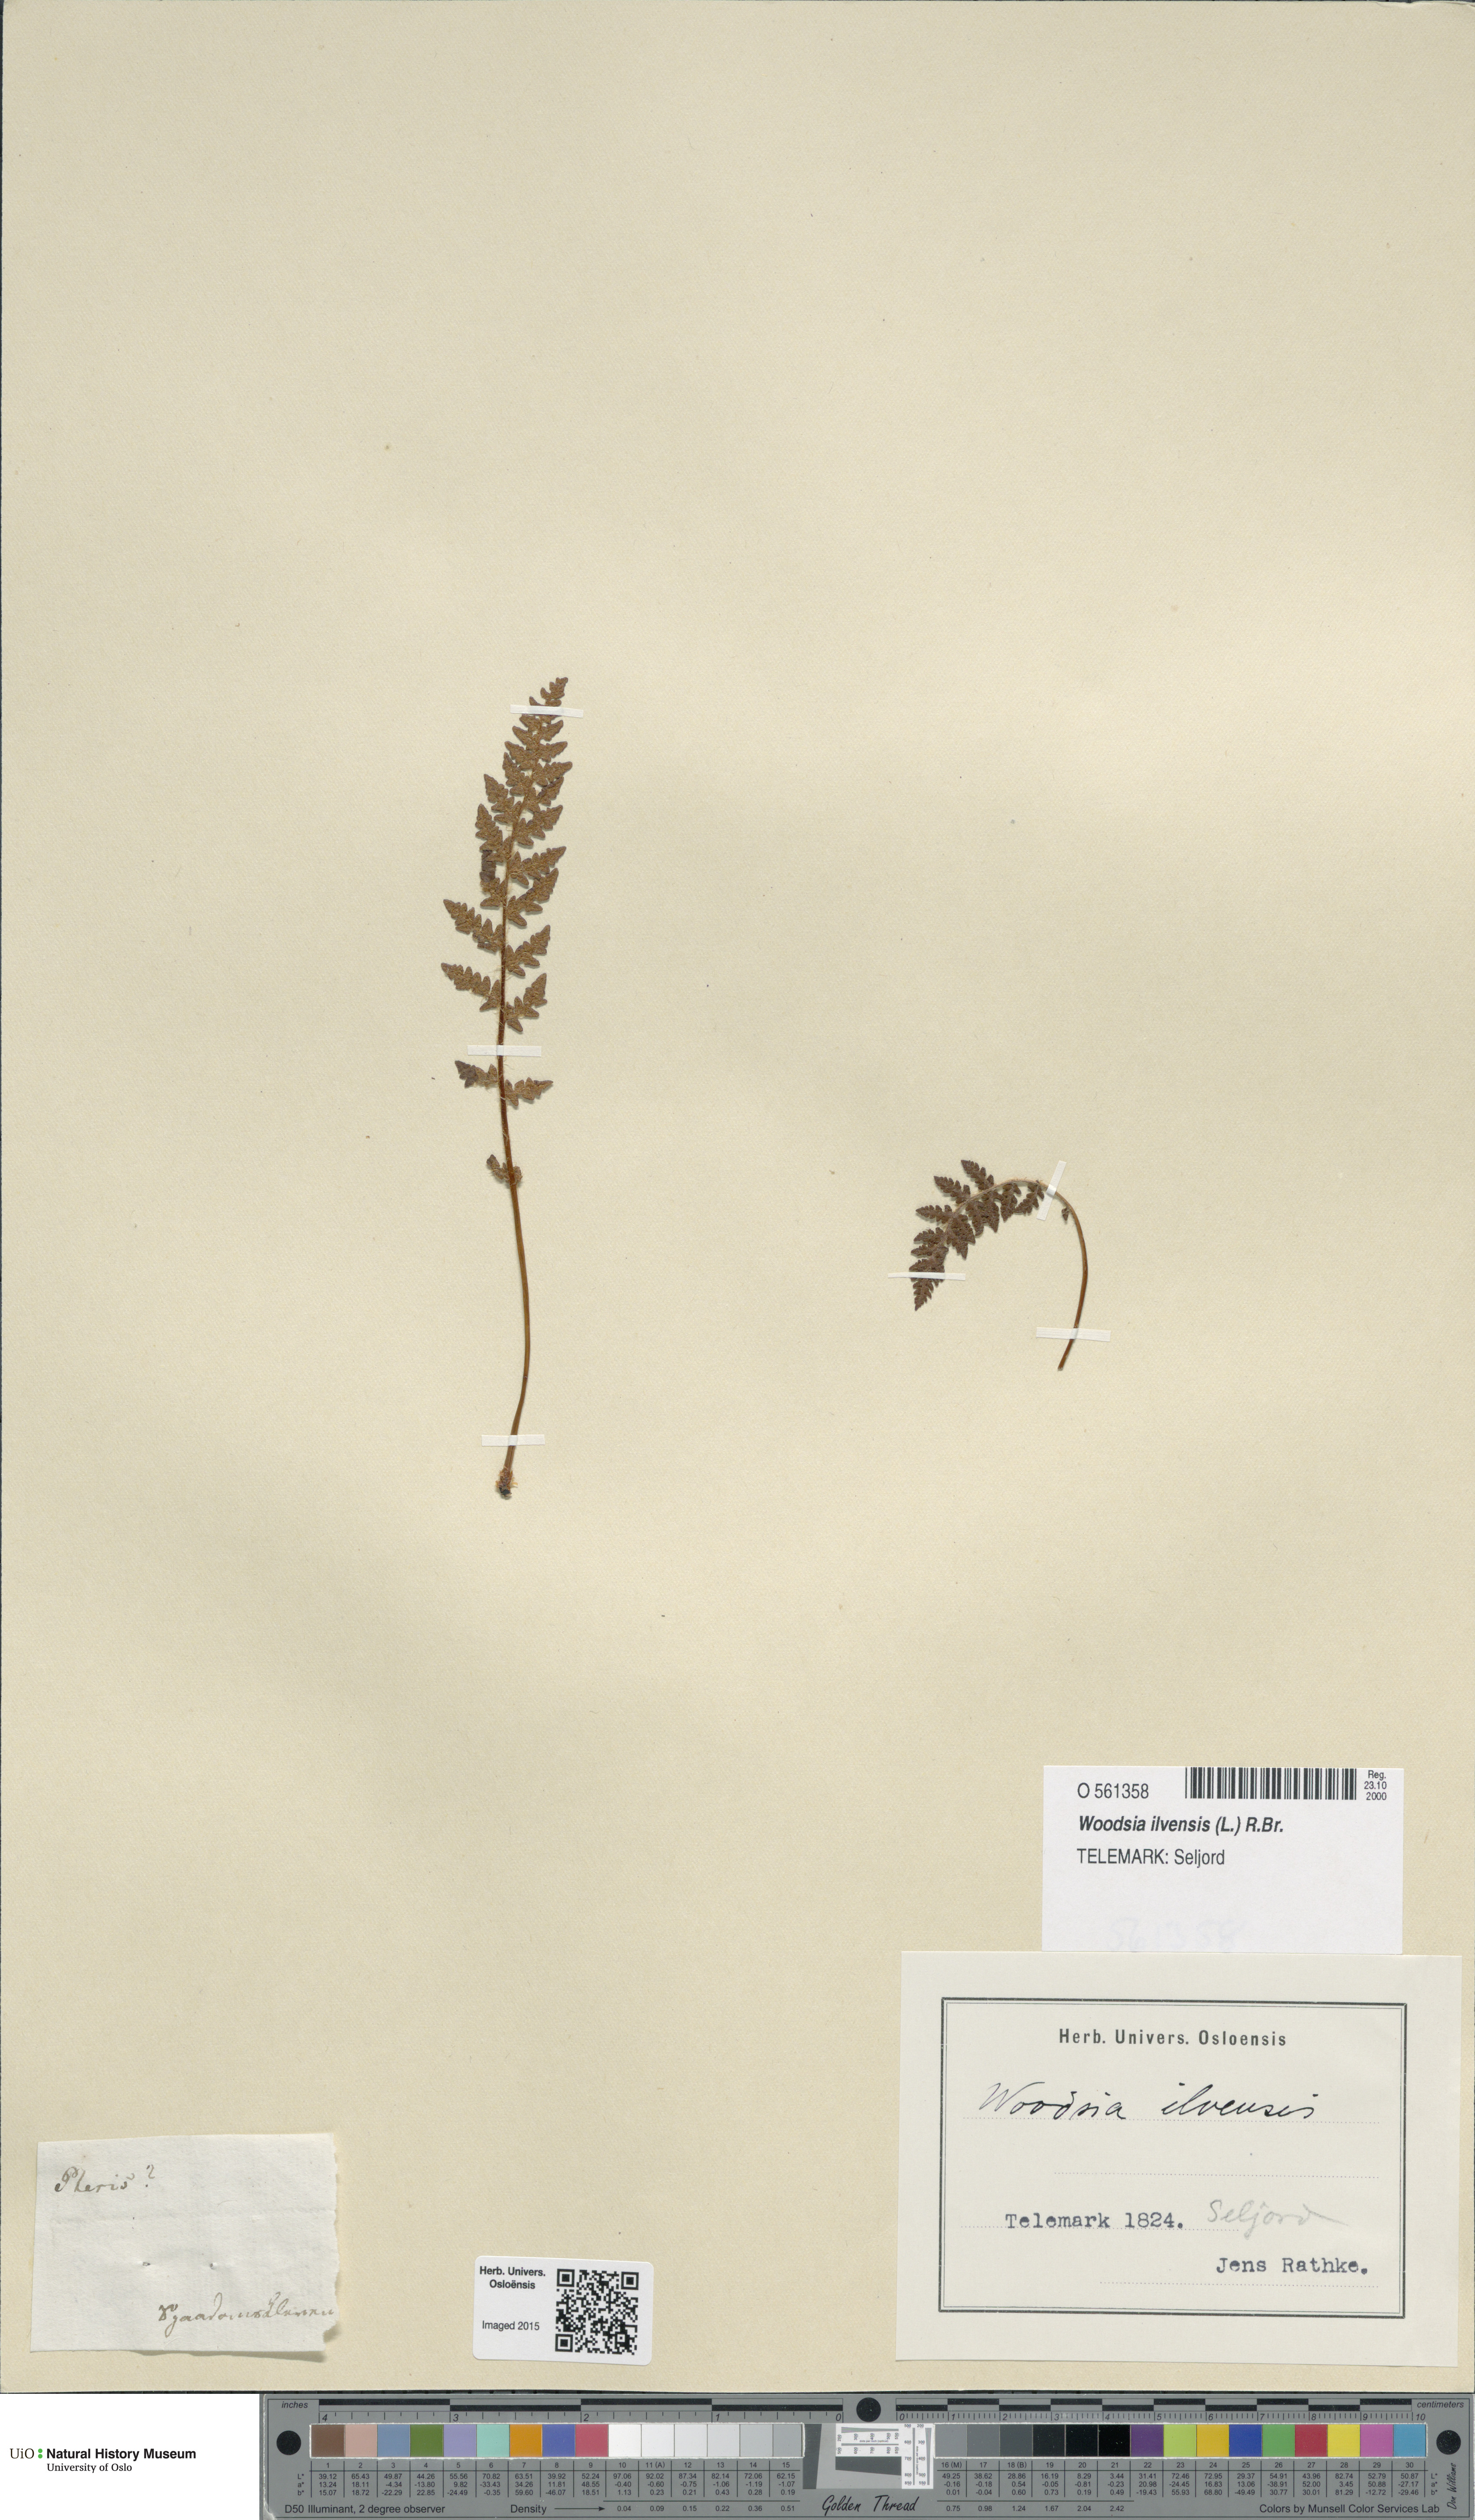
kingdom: Plantae
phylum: Tracheophyta
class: Polypodiopsida
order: Polypodiales
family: Woodsiaceae
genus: Woodsia
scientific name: Woodsia ilvensis
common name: Fragrant woodsia
